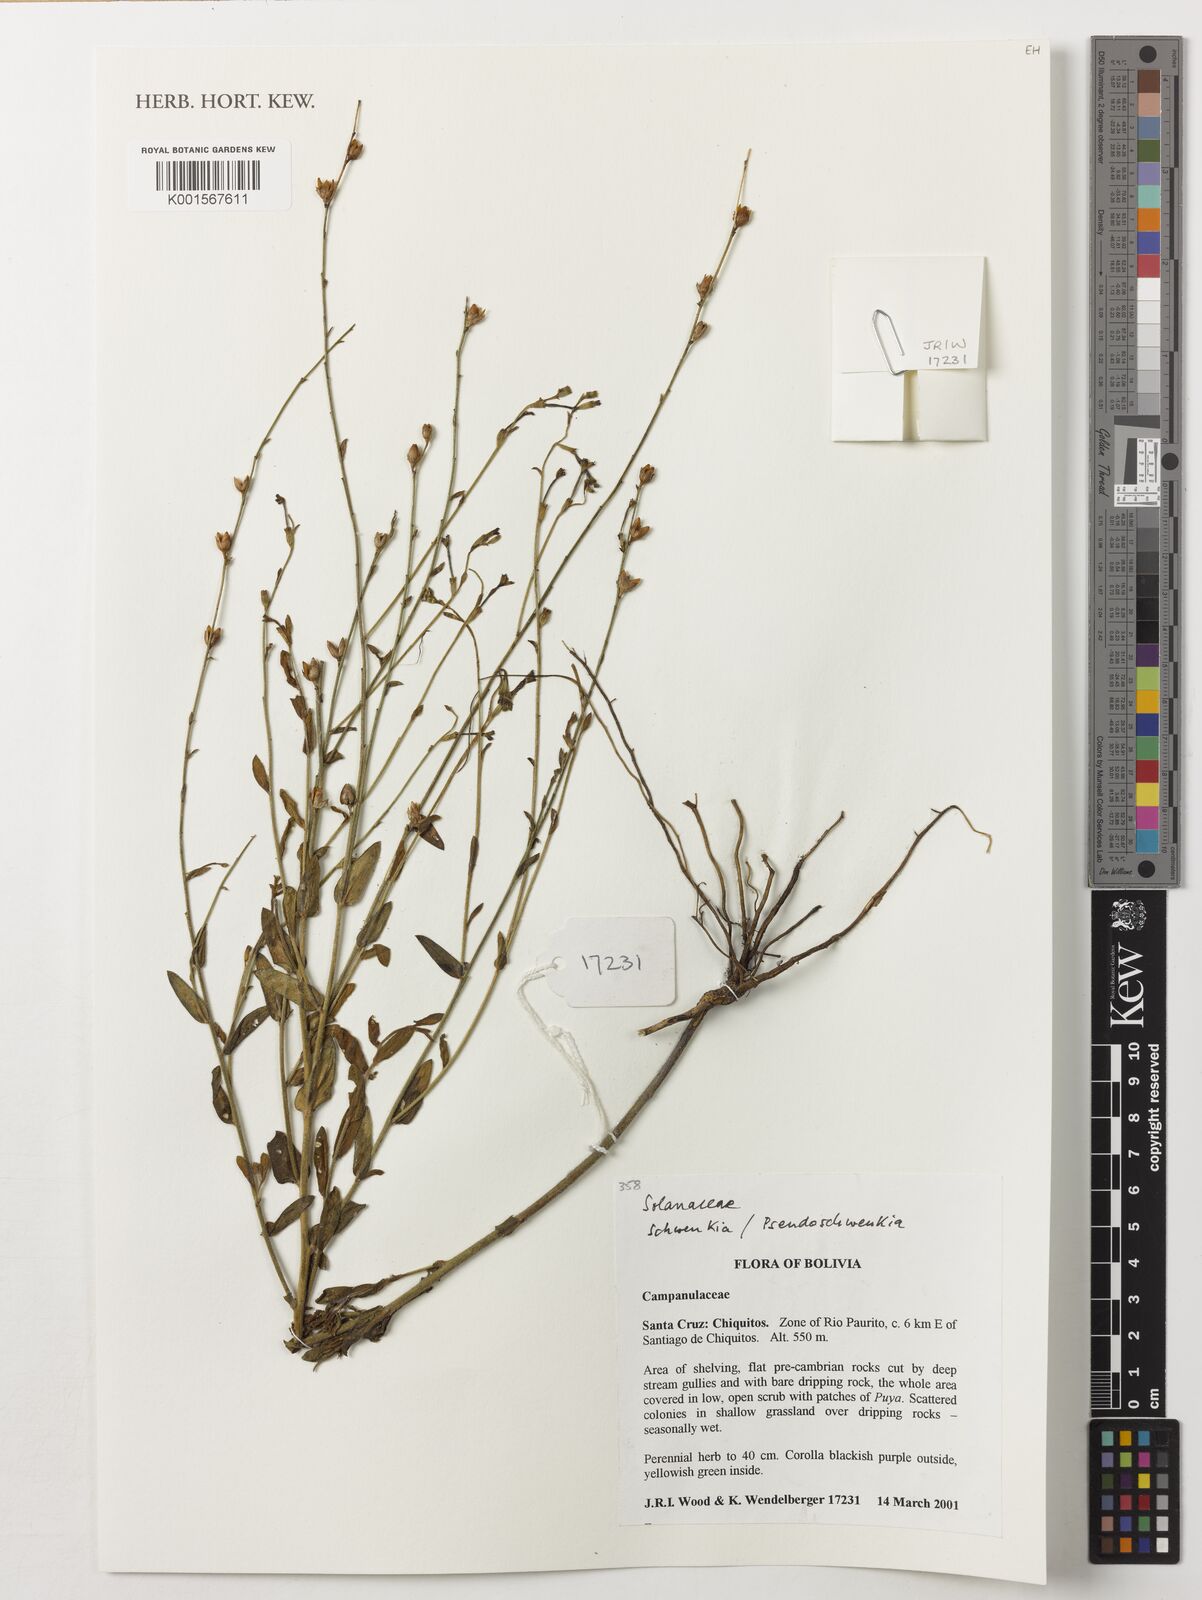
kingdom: Plantae
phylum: Tracheophyta
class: Magnoliopsida
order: Solanales
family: Solanaceae
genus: Schwenckia
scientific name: Schwenckia
